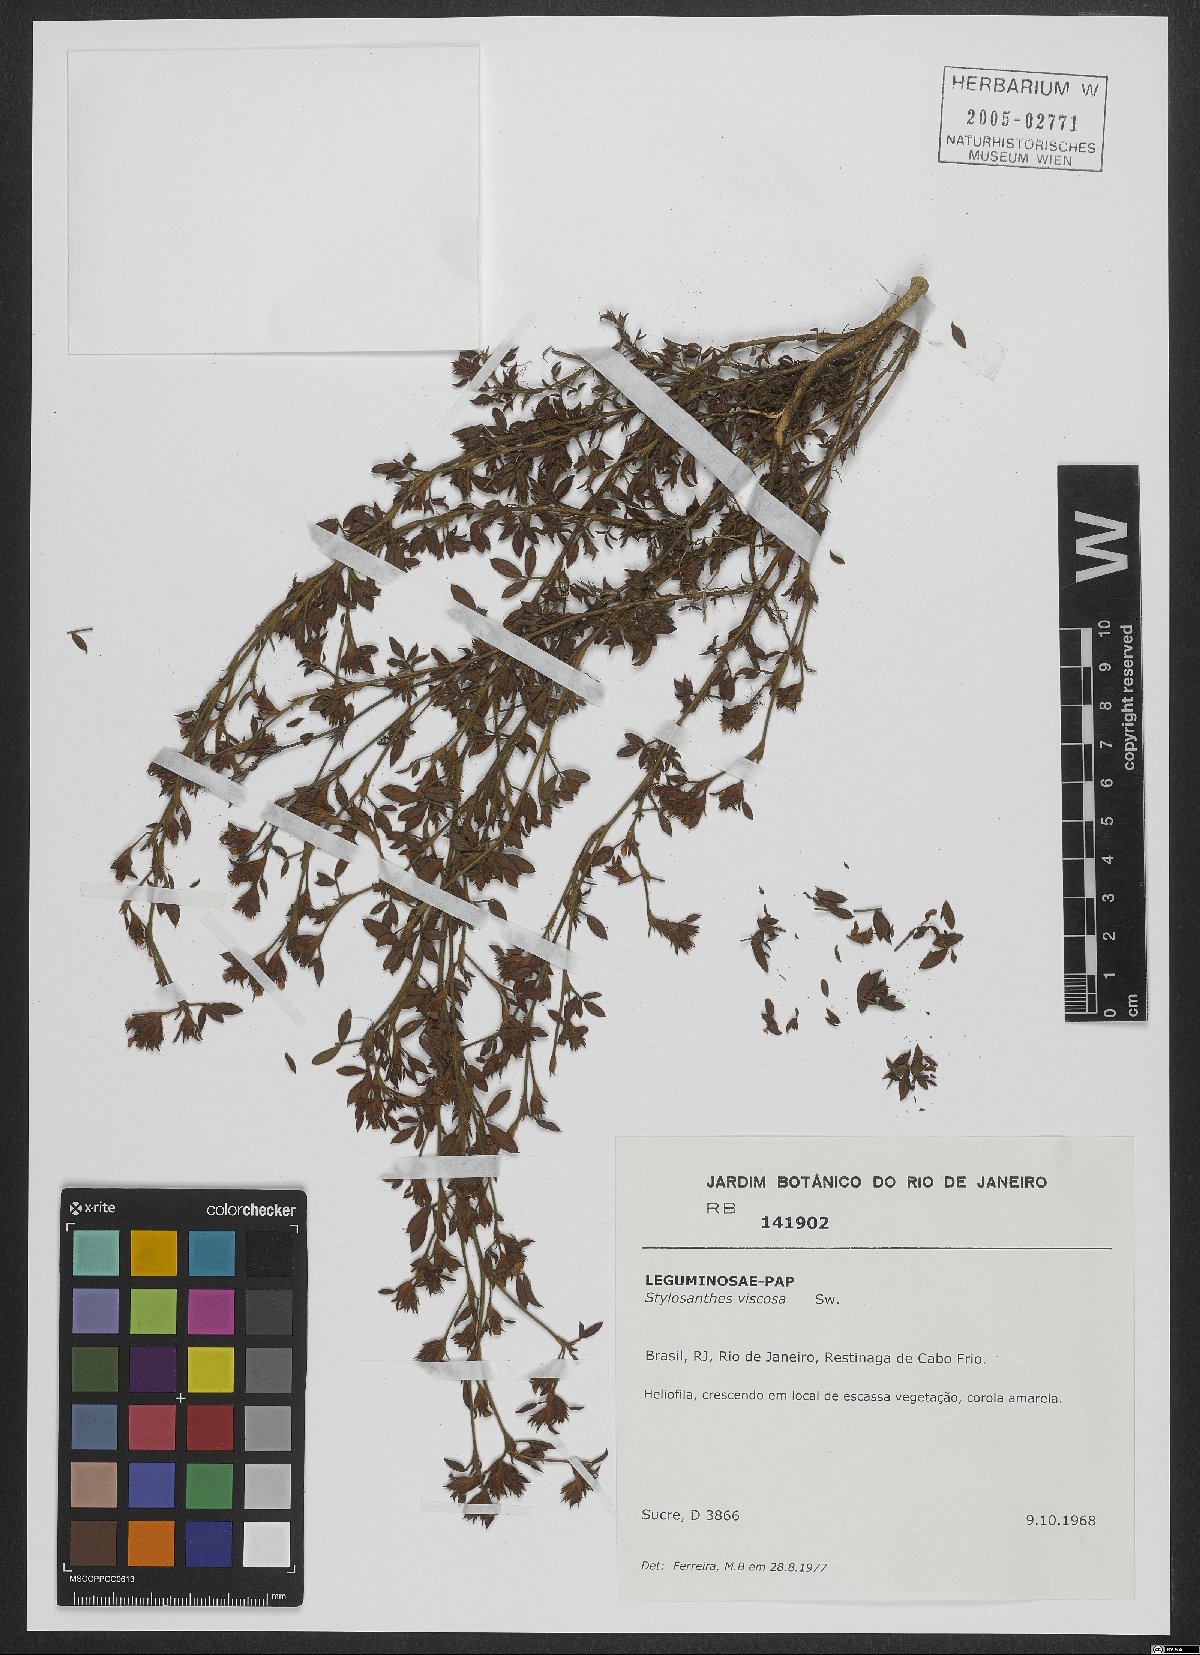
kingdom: Plantae
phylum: Tracheophyta
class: Magnoliopsida
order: Fabales
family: Fabaceae
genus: Stylosanthes
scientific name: Stylosanthes viscosa
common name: Viscid pencil-flower
